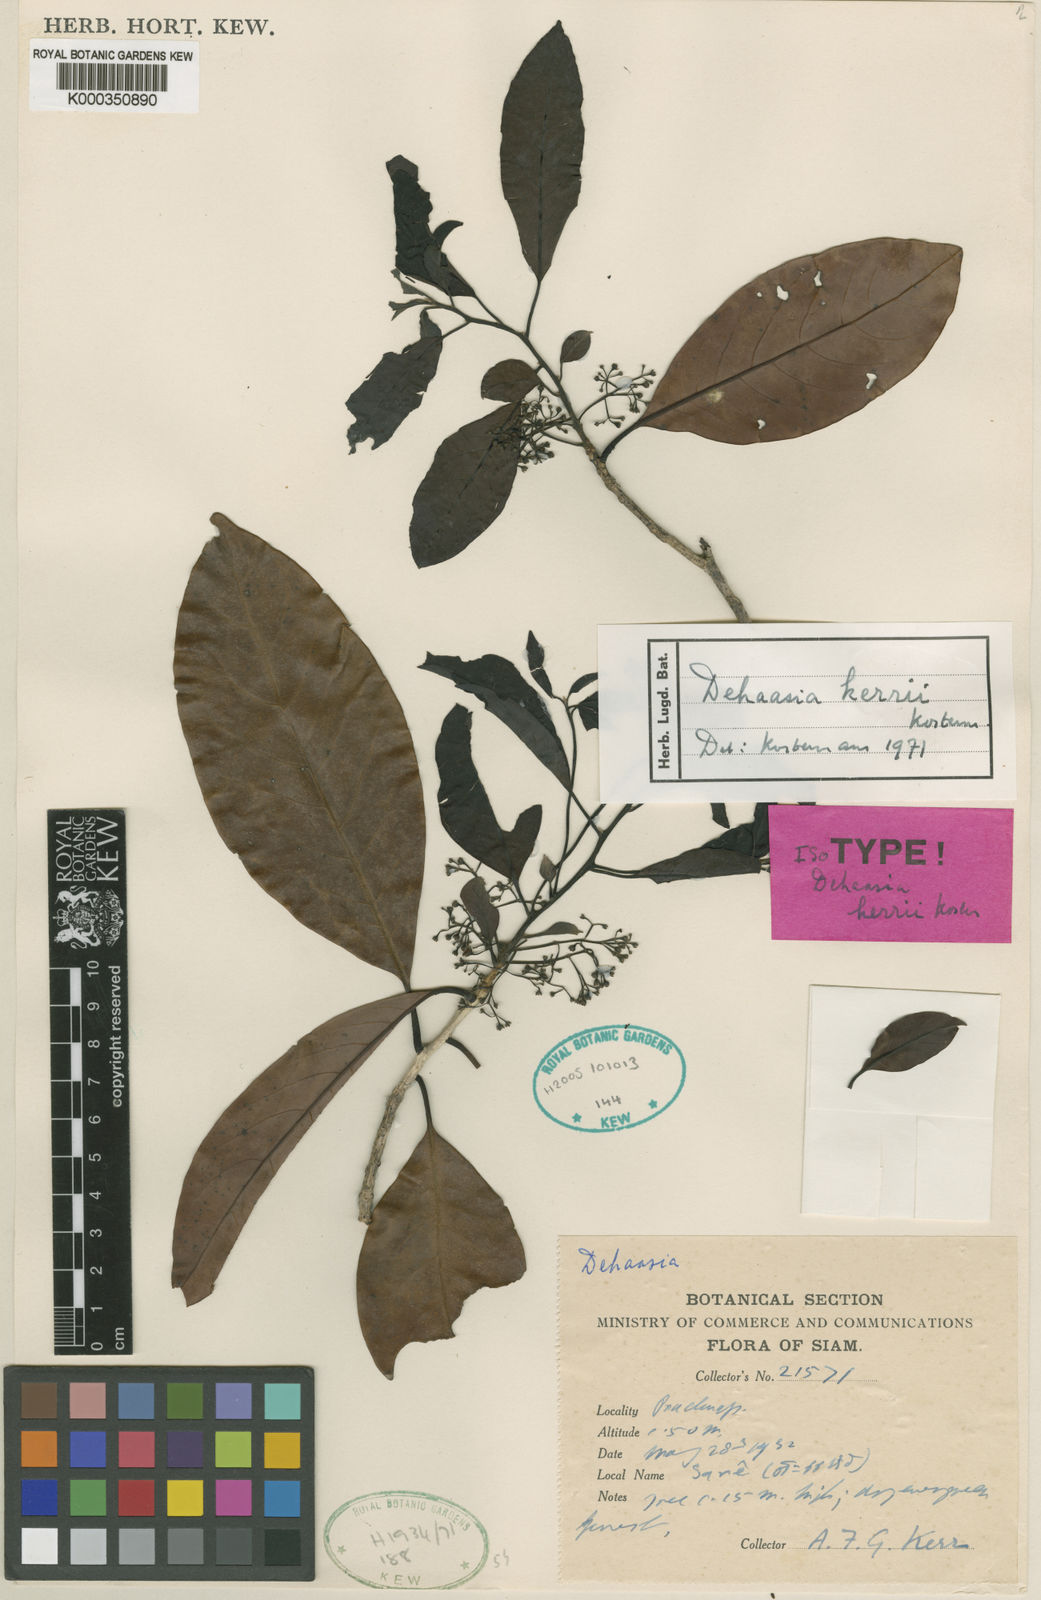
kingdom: Plantae
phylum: Tracheophyta
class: Magnoliopsida
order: Laurales
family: Lauraceae
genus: Dehaasia
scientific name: Dehaasia kerrii
